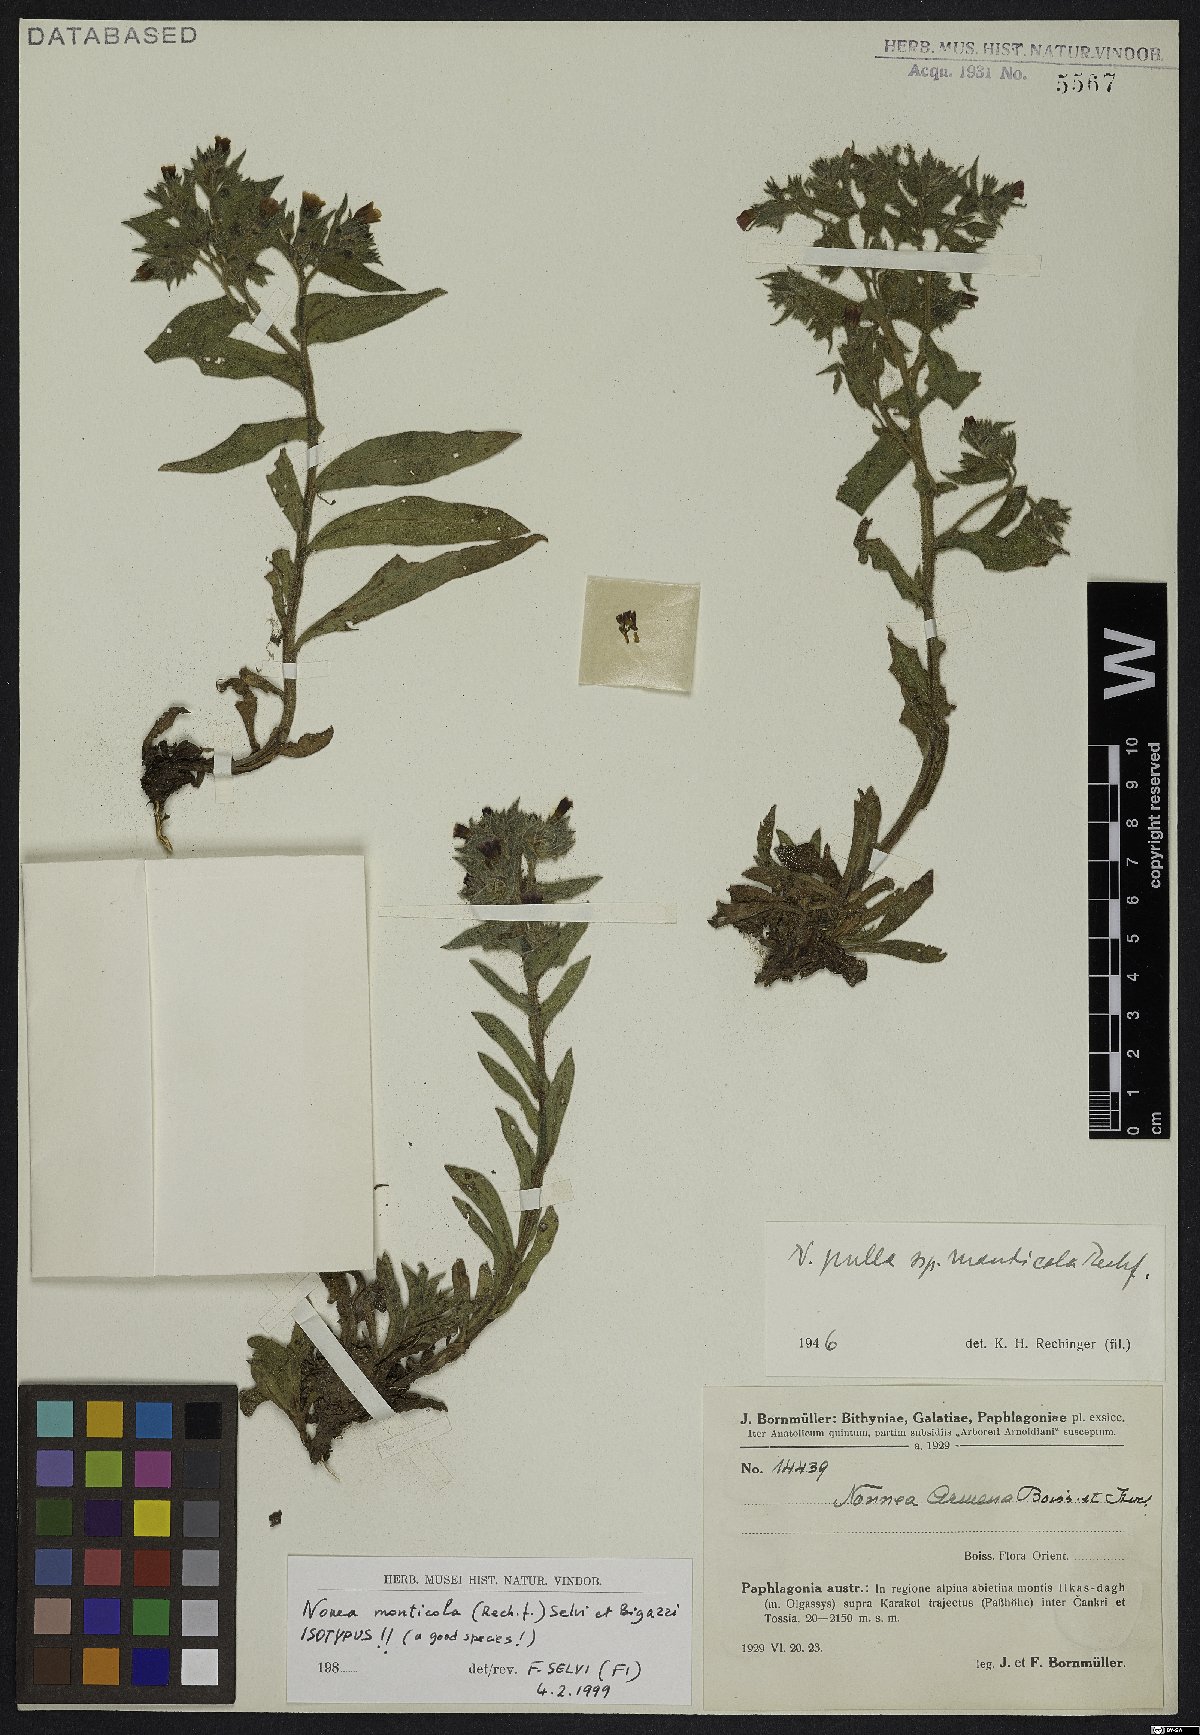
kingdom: Plantae
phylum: Tracheophyta
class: Magnoliopsida
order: Boraginales
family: Boraginaceae
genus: Nonea
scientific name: Nonea monticola
